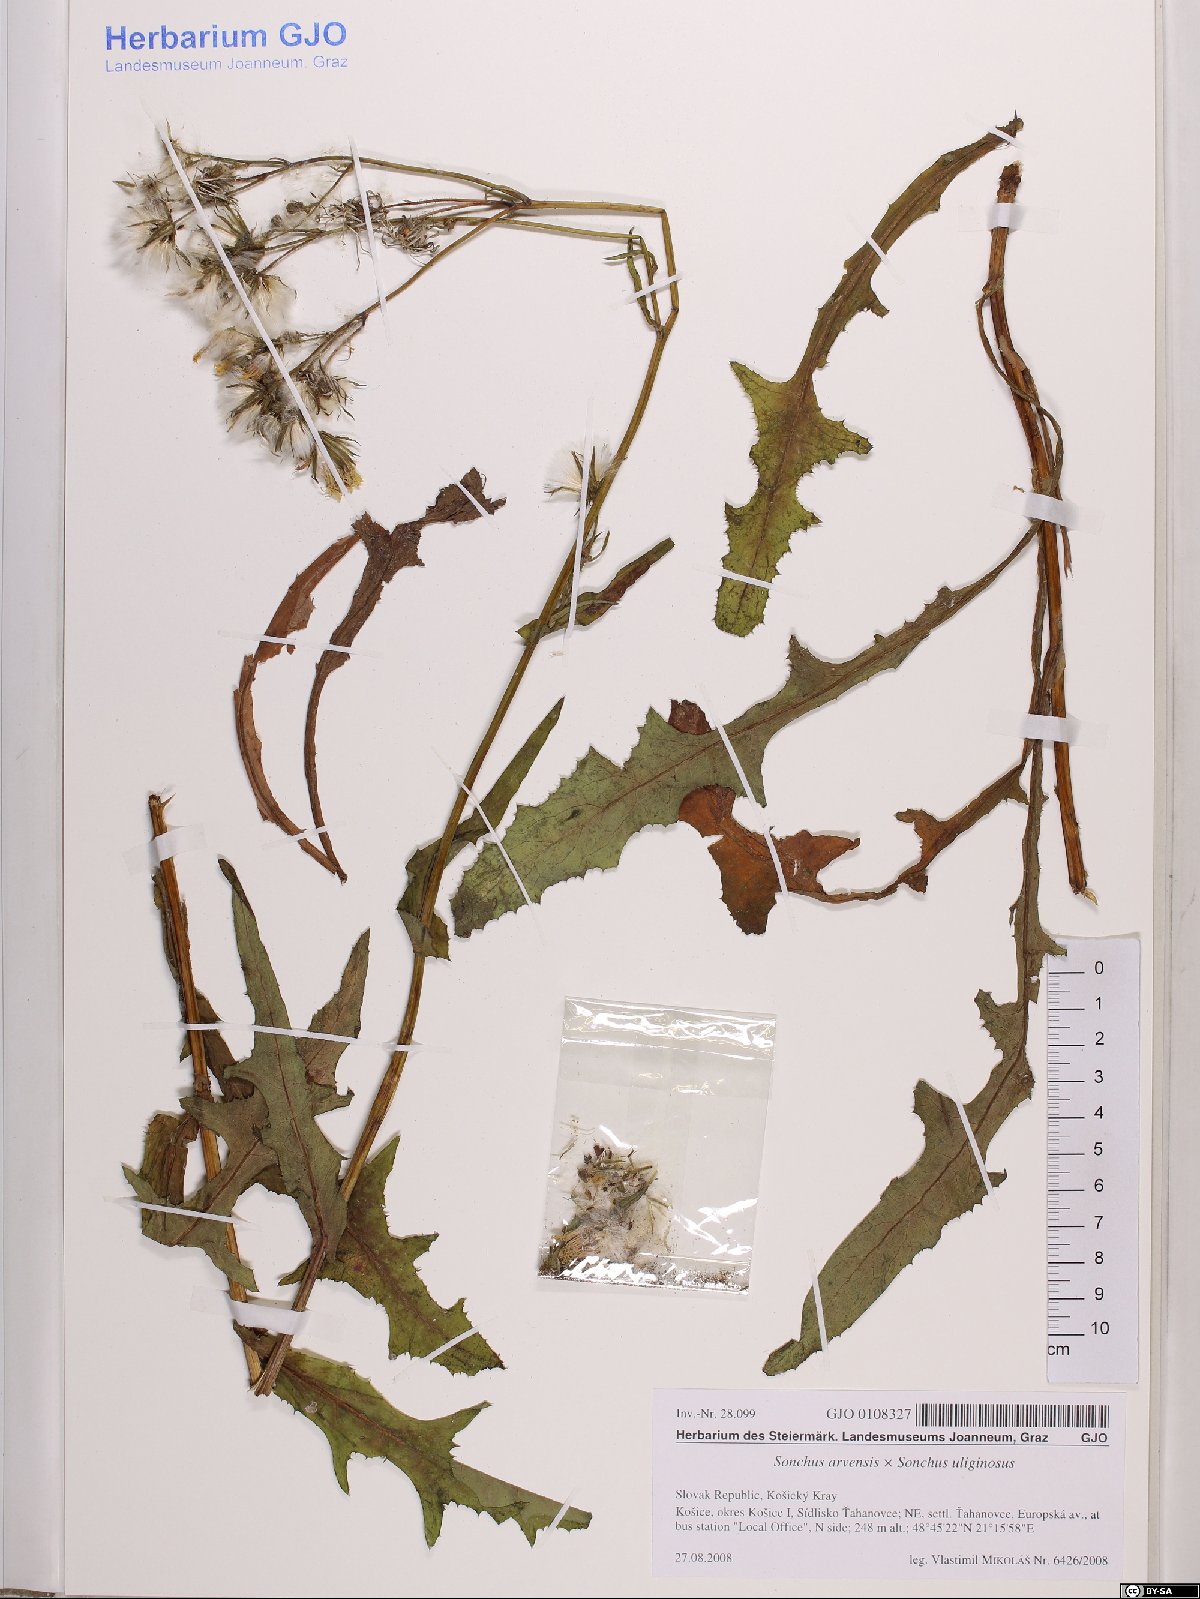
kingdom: Plantae
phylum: Tracheophyta
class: Magnoliopsida
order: Asterales
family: Asteraceae
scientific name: Asteraceae
